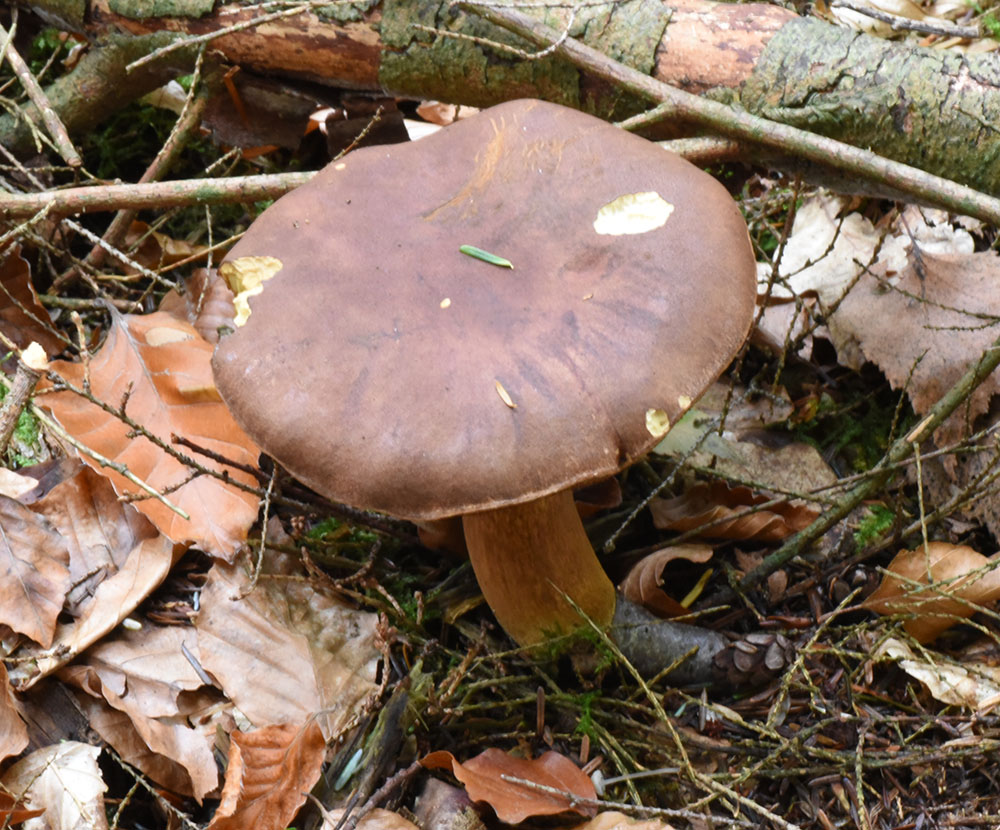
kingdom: Fungi
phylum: Basidiomycota
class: Agaricomycetes
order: Boletales
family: Boletaceae
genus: Imleria
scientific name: Imleria badia
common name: Bay bolete
